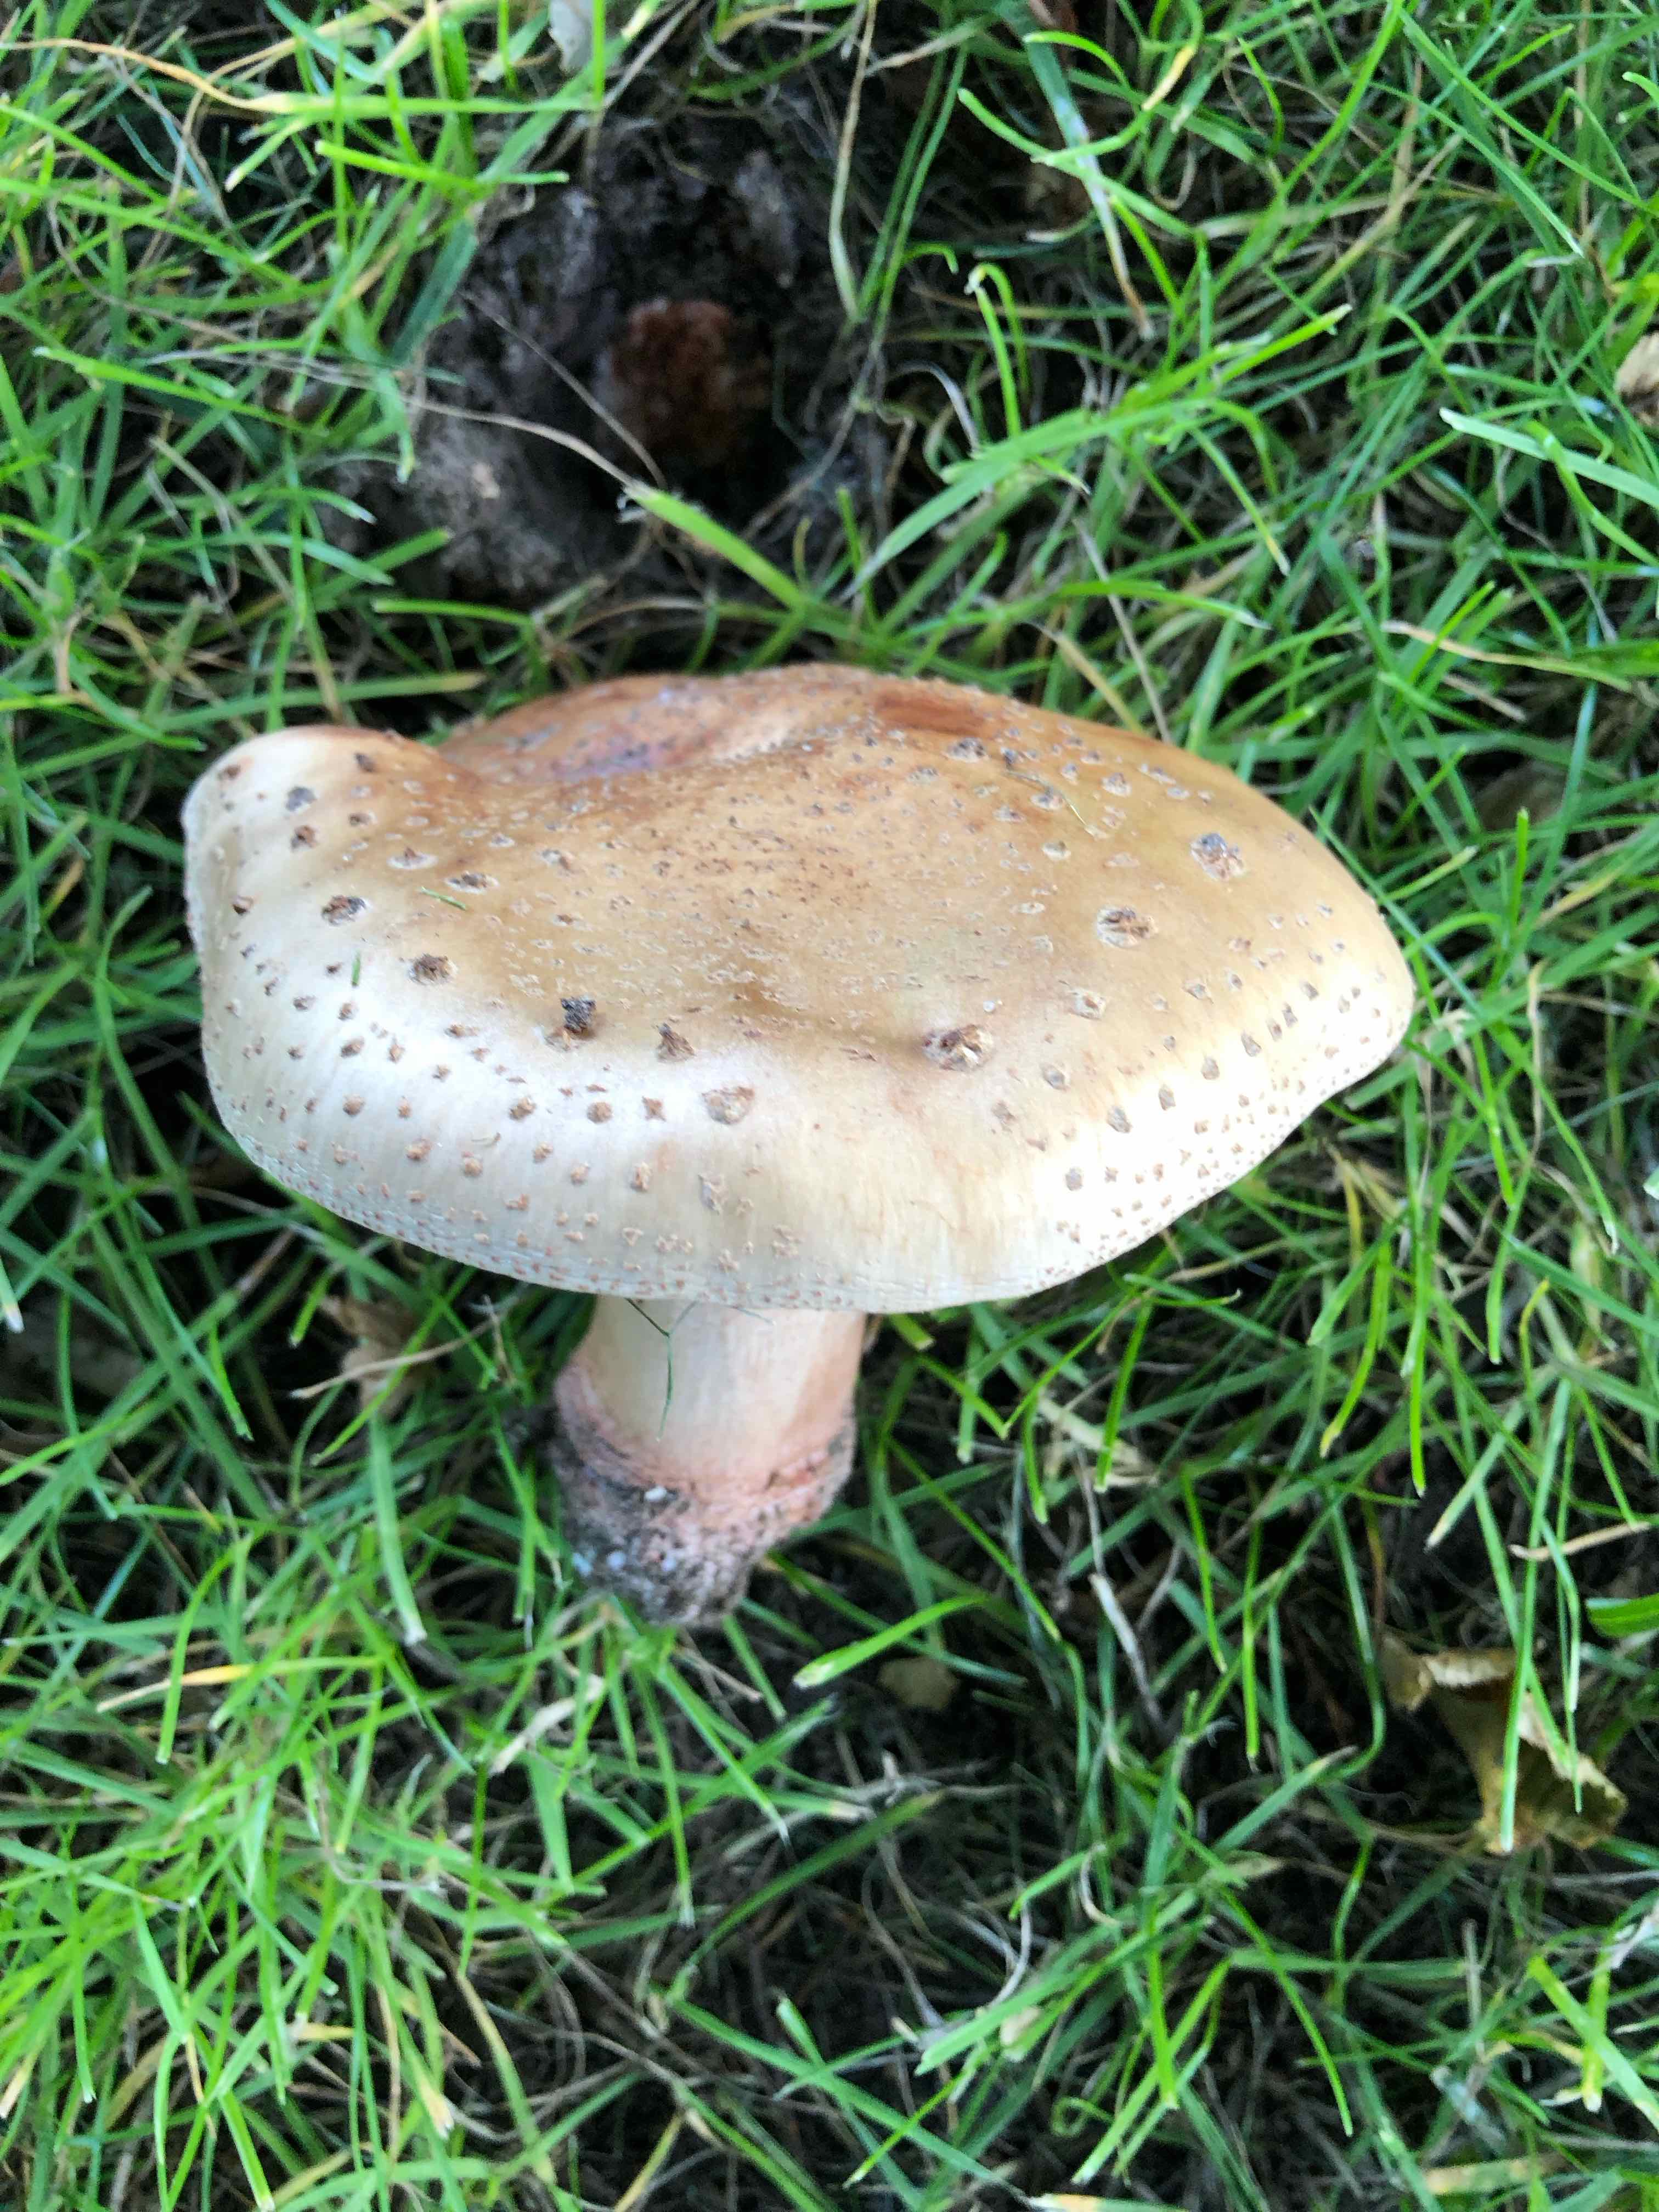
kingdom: Fungi
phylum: Basidiomycota
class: Agaricomycetes
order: Agaricales
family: Amanitaceae
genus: Amanita
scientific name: Amanita rubescens
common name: rødmende fluesvamp
